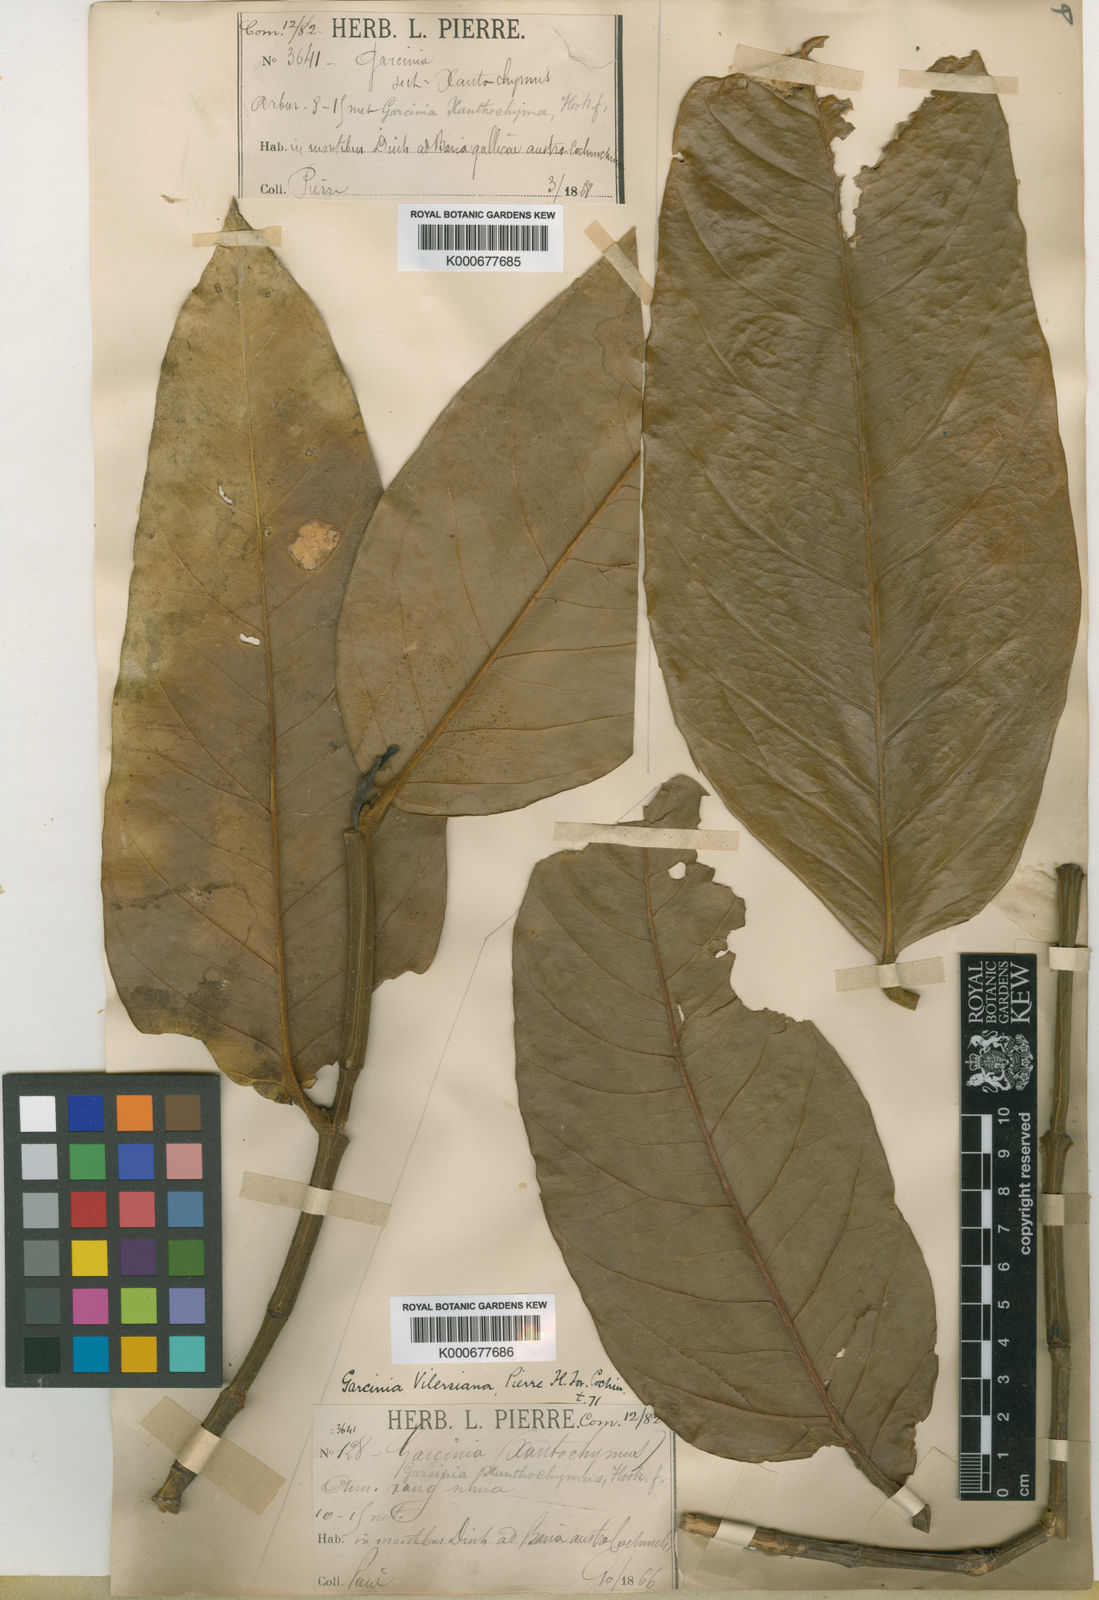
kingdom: Plantae
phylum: Tracheophyta
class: Magnoliopsida
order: Malpighiales
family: Clusiaceae
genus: Garcinia
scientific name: Garcinia vilersiana
